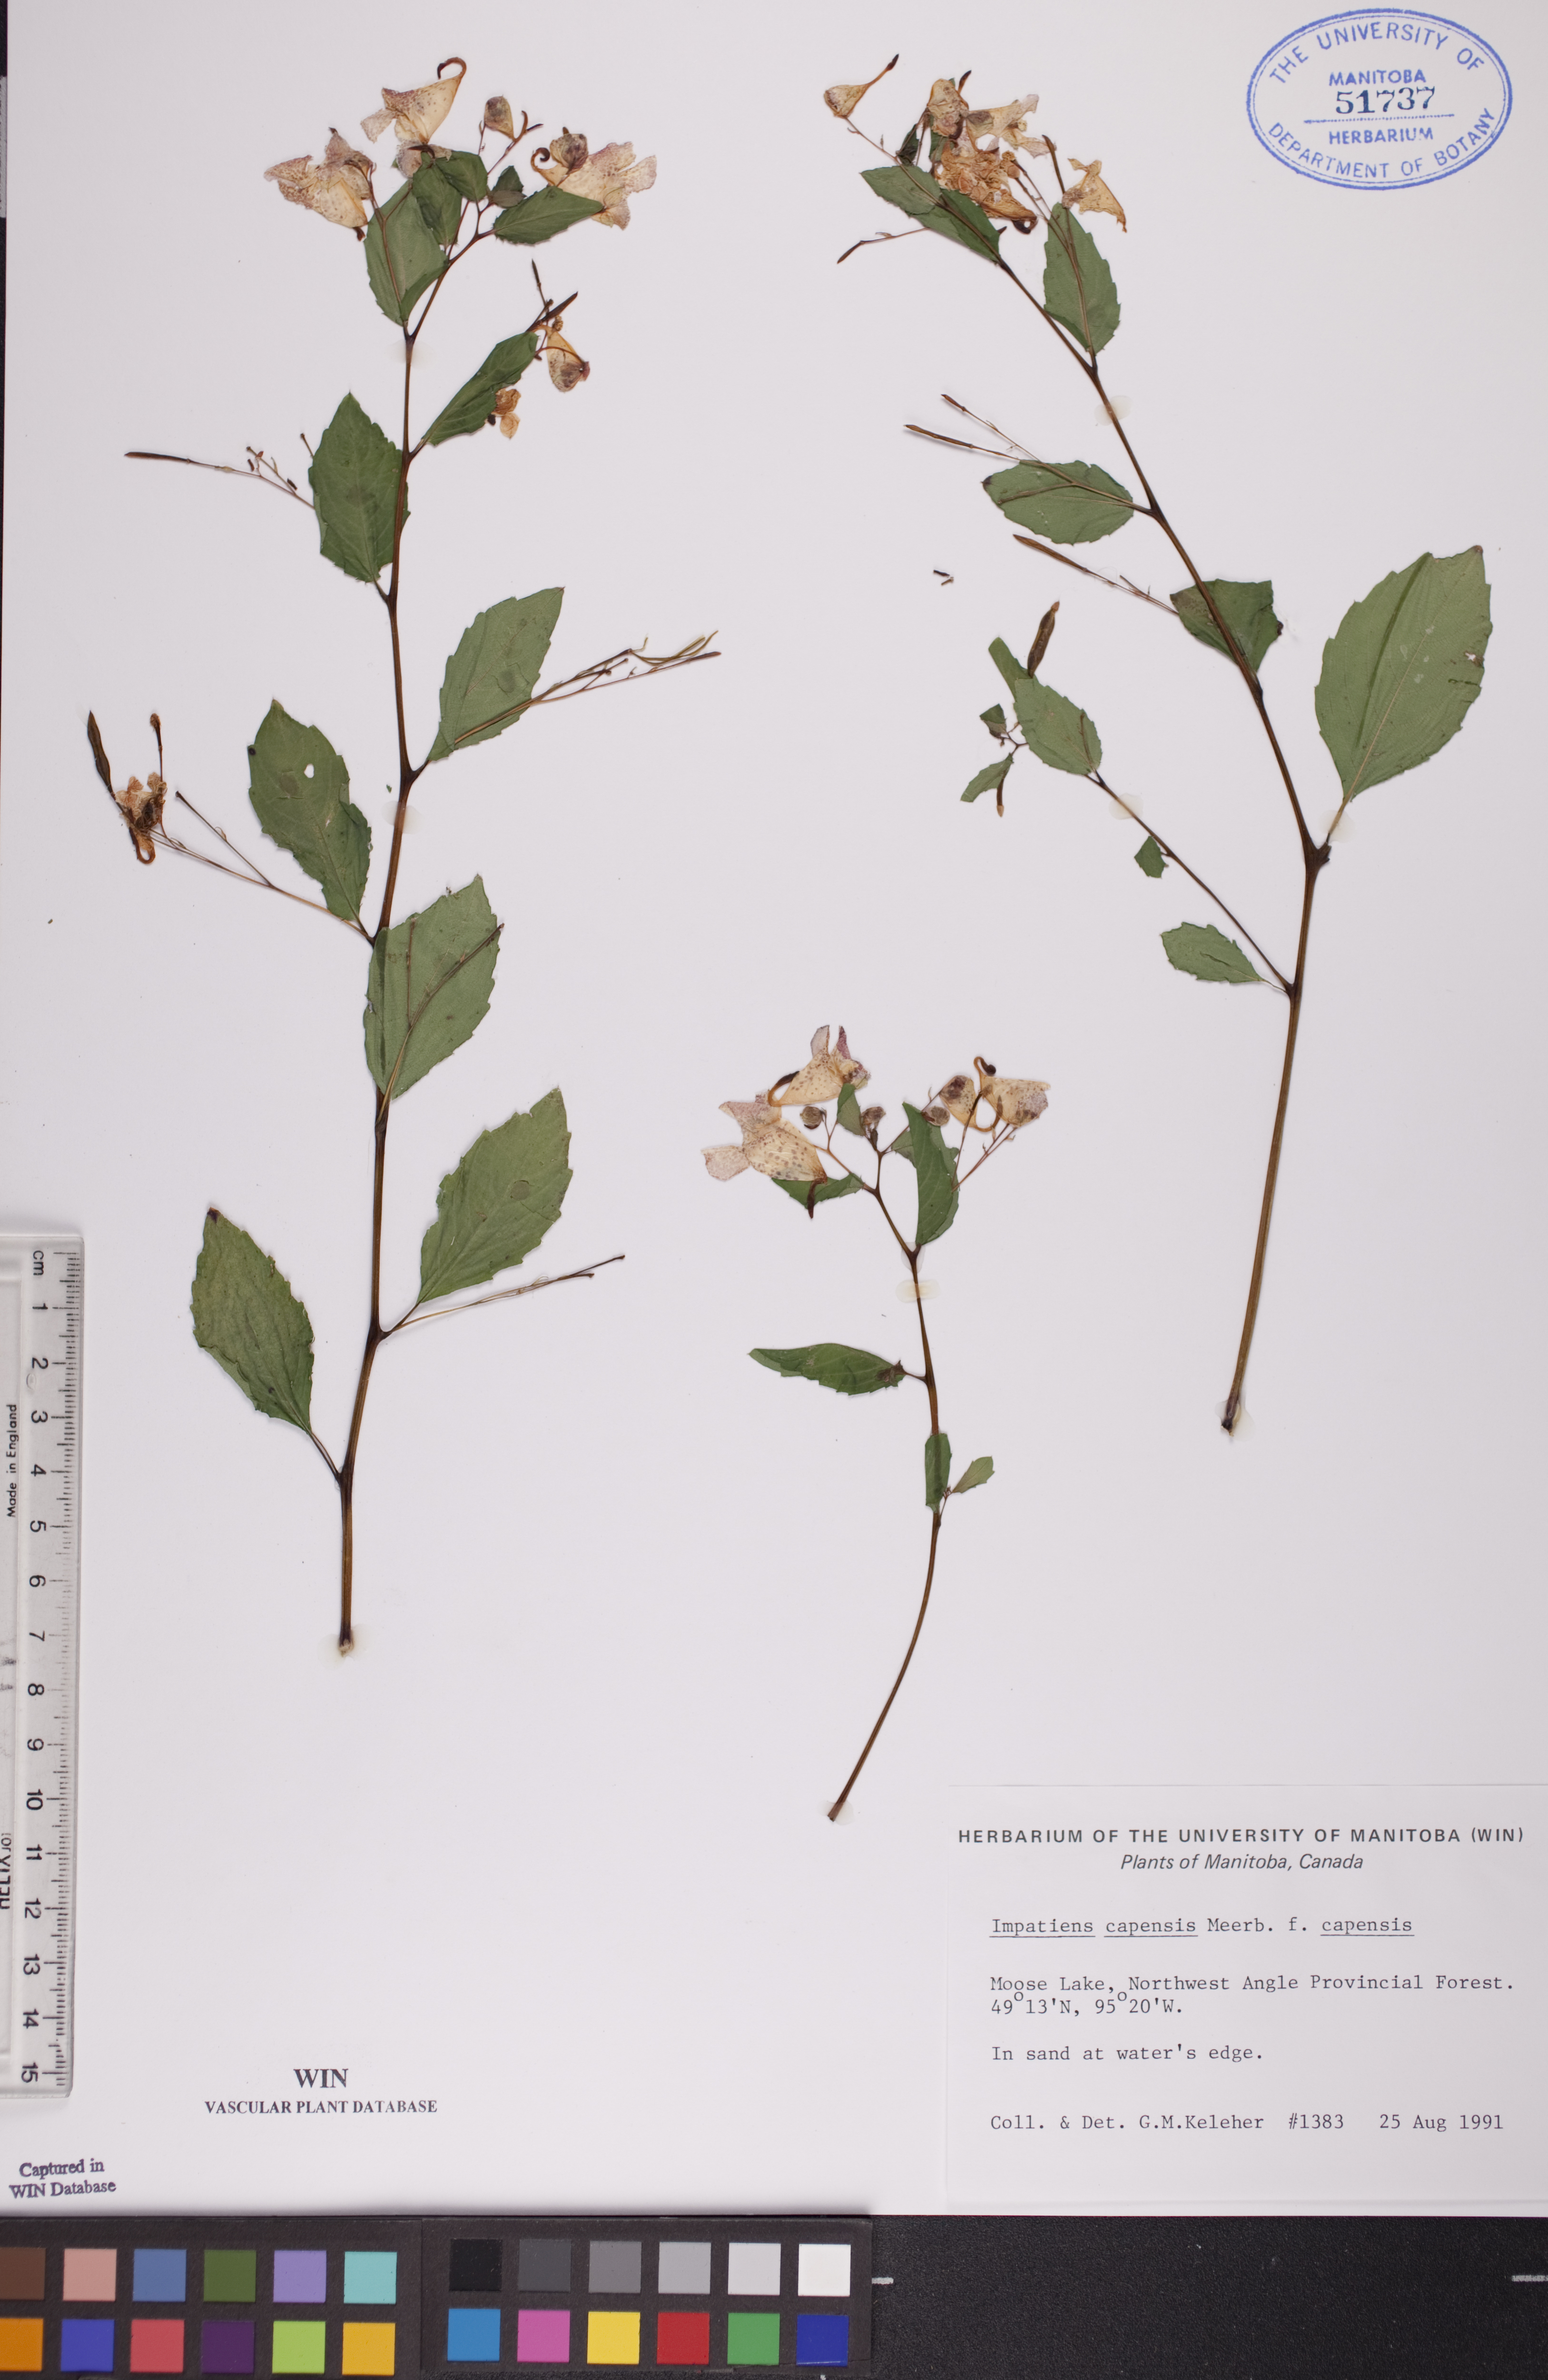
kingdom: Plantae
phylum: Tracheophyta
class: Magnoliopsida
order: Ericales
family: Balsaminaceae
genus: Impatiens
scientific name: Impatiens capensis
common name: Orange balsam
